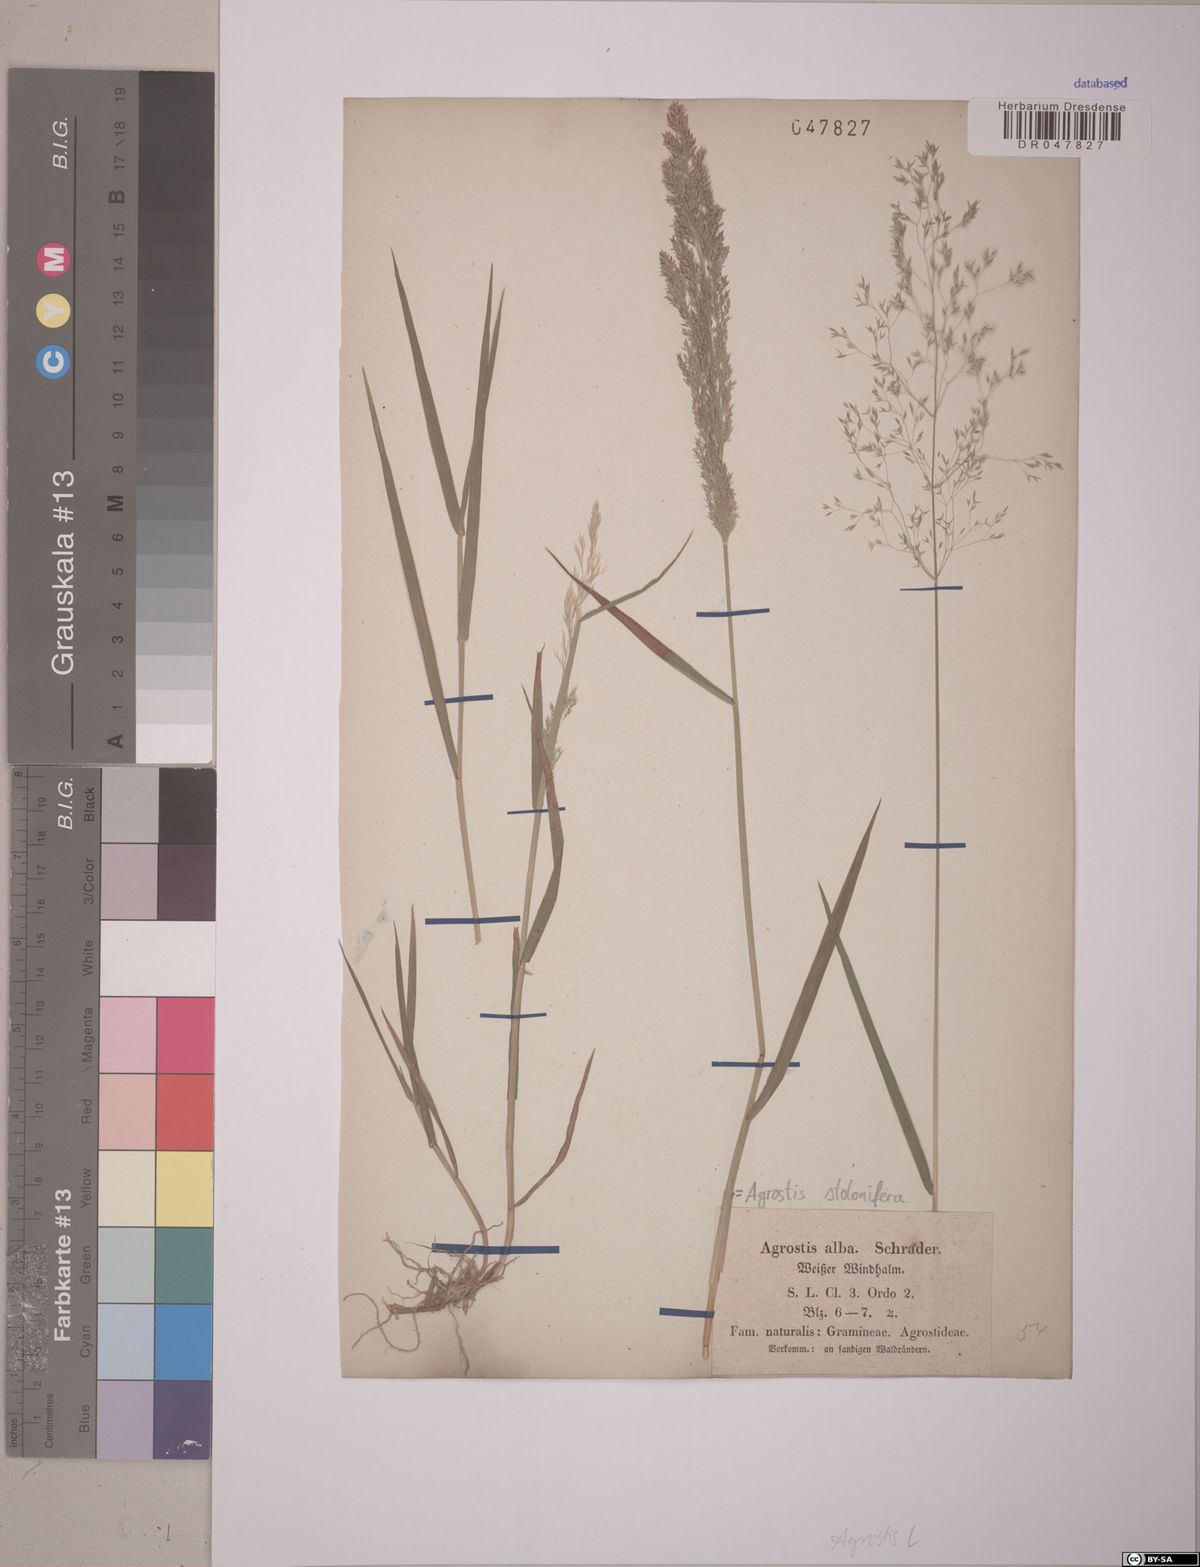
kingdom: Plantae
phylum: Tracheophyta
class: Liliopsida
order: Poales
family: Poaceae
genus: Agrostis
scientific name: Agrostis stolonifera
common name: Creeping bentgrass
